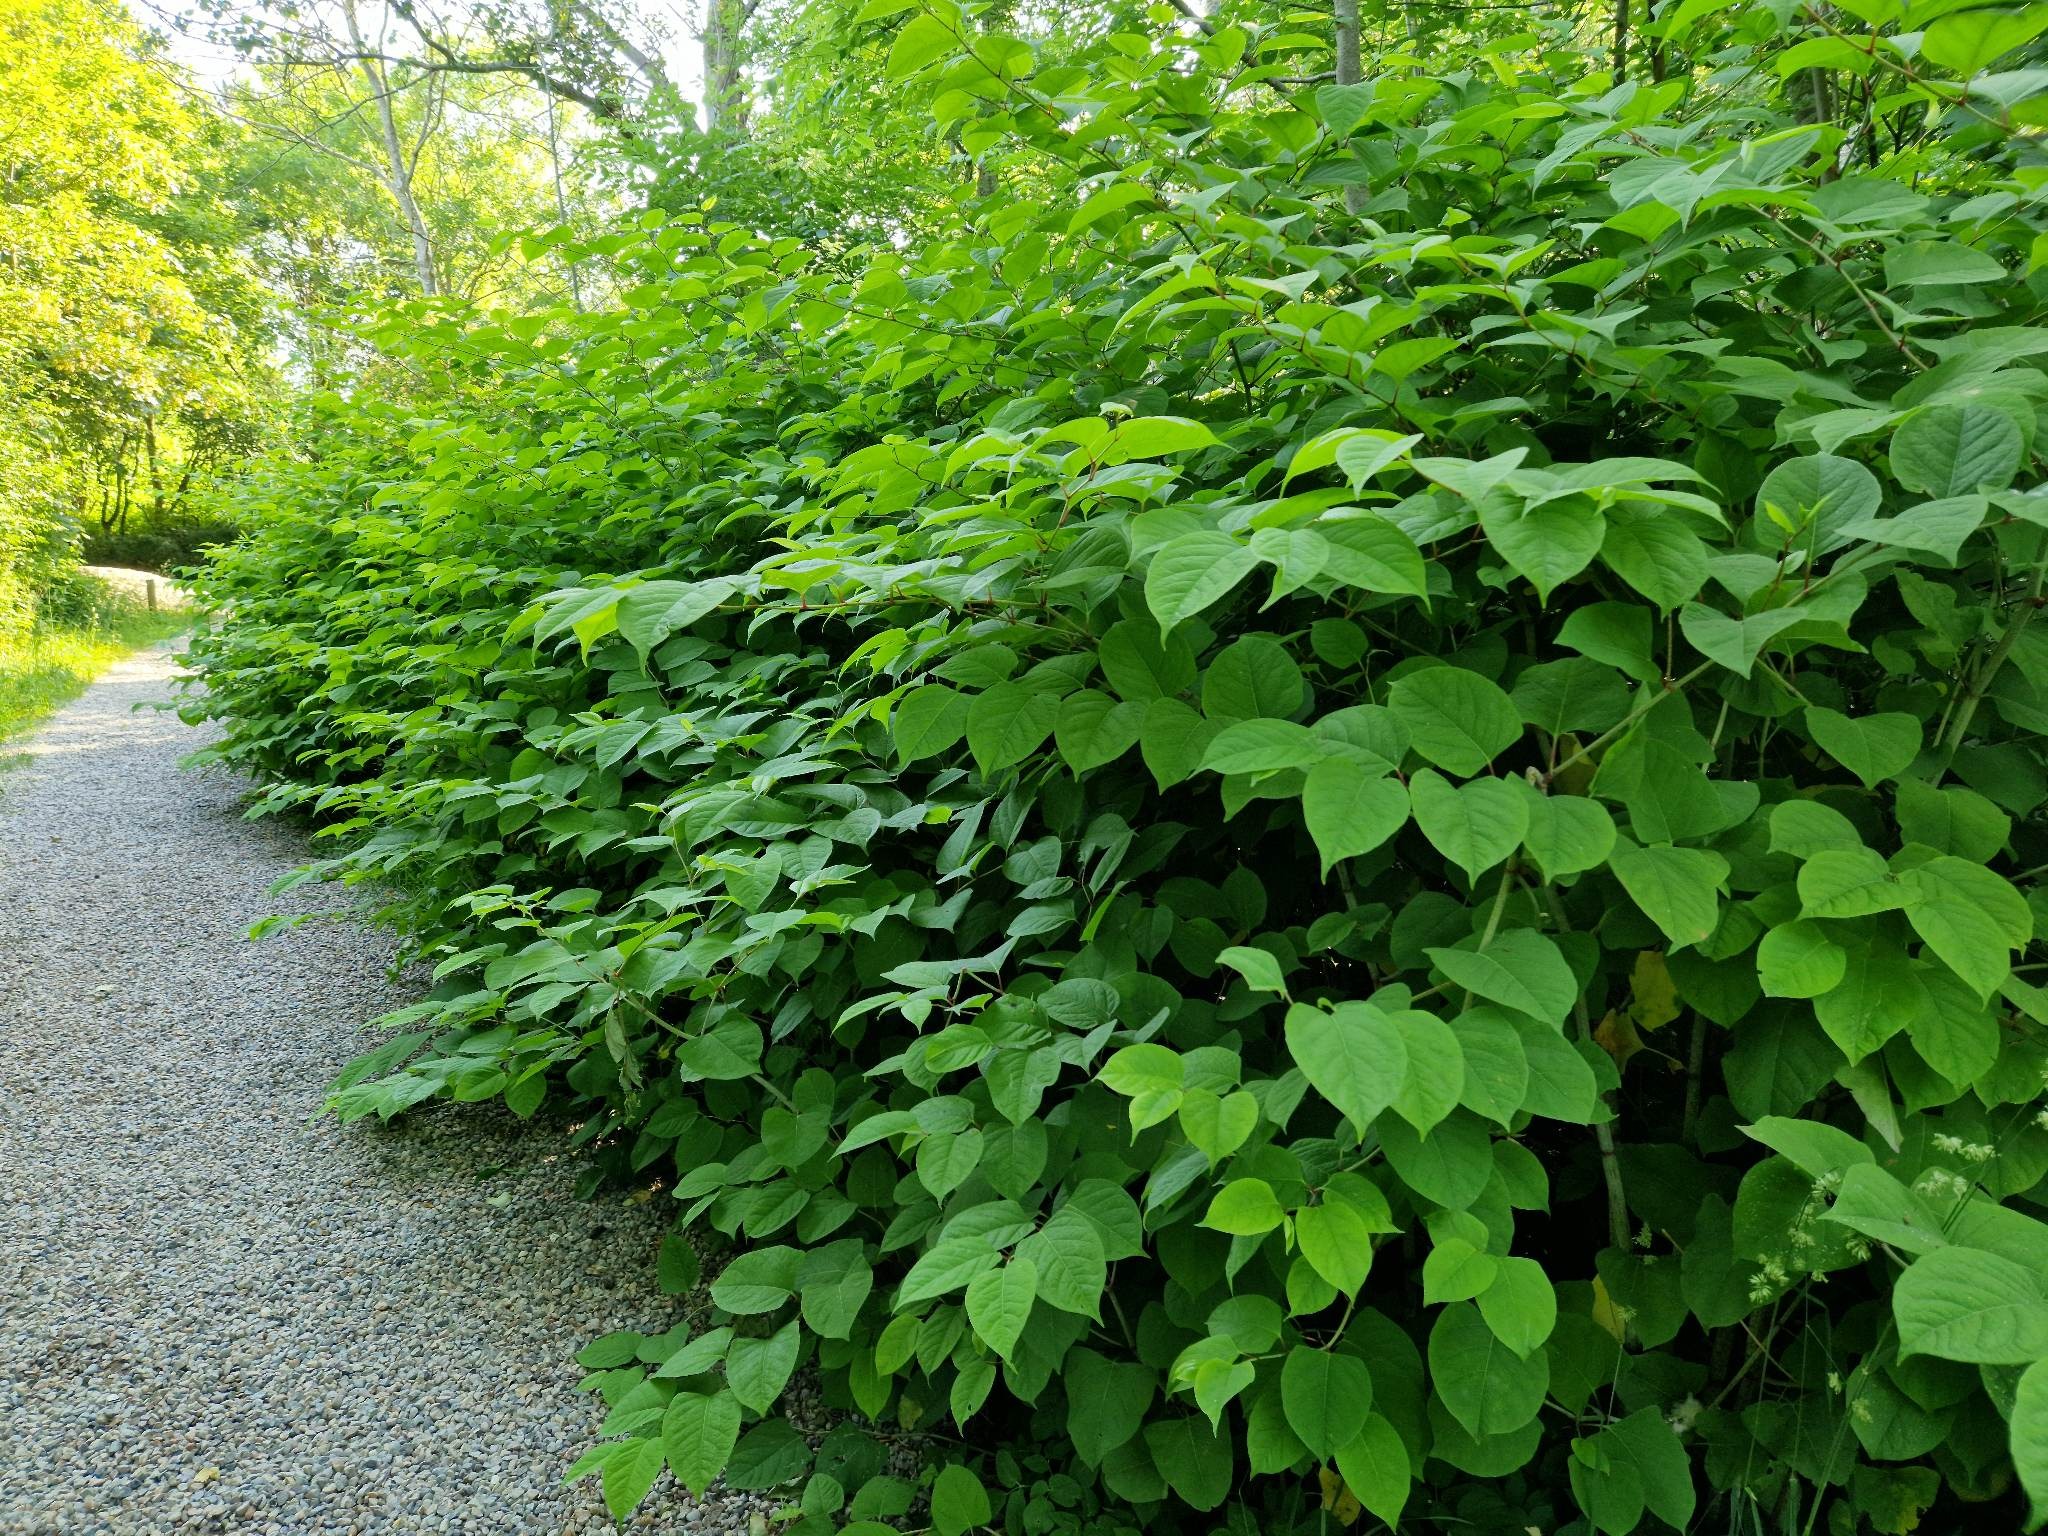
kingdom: Plantae
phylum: Tracheophyta
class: Magnoliopsida
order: Caryophyllales
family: Polygonaceae
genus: Reynoutria
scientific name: Reynoutria japonica
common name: Japan-pileurt
